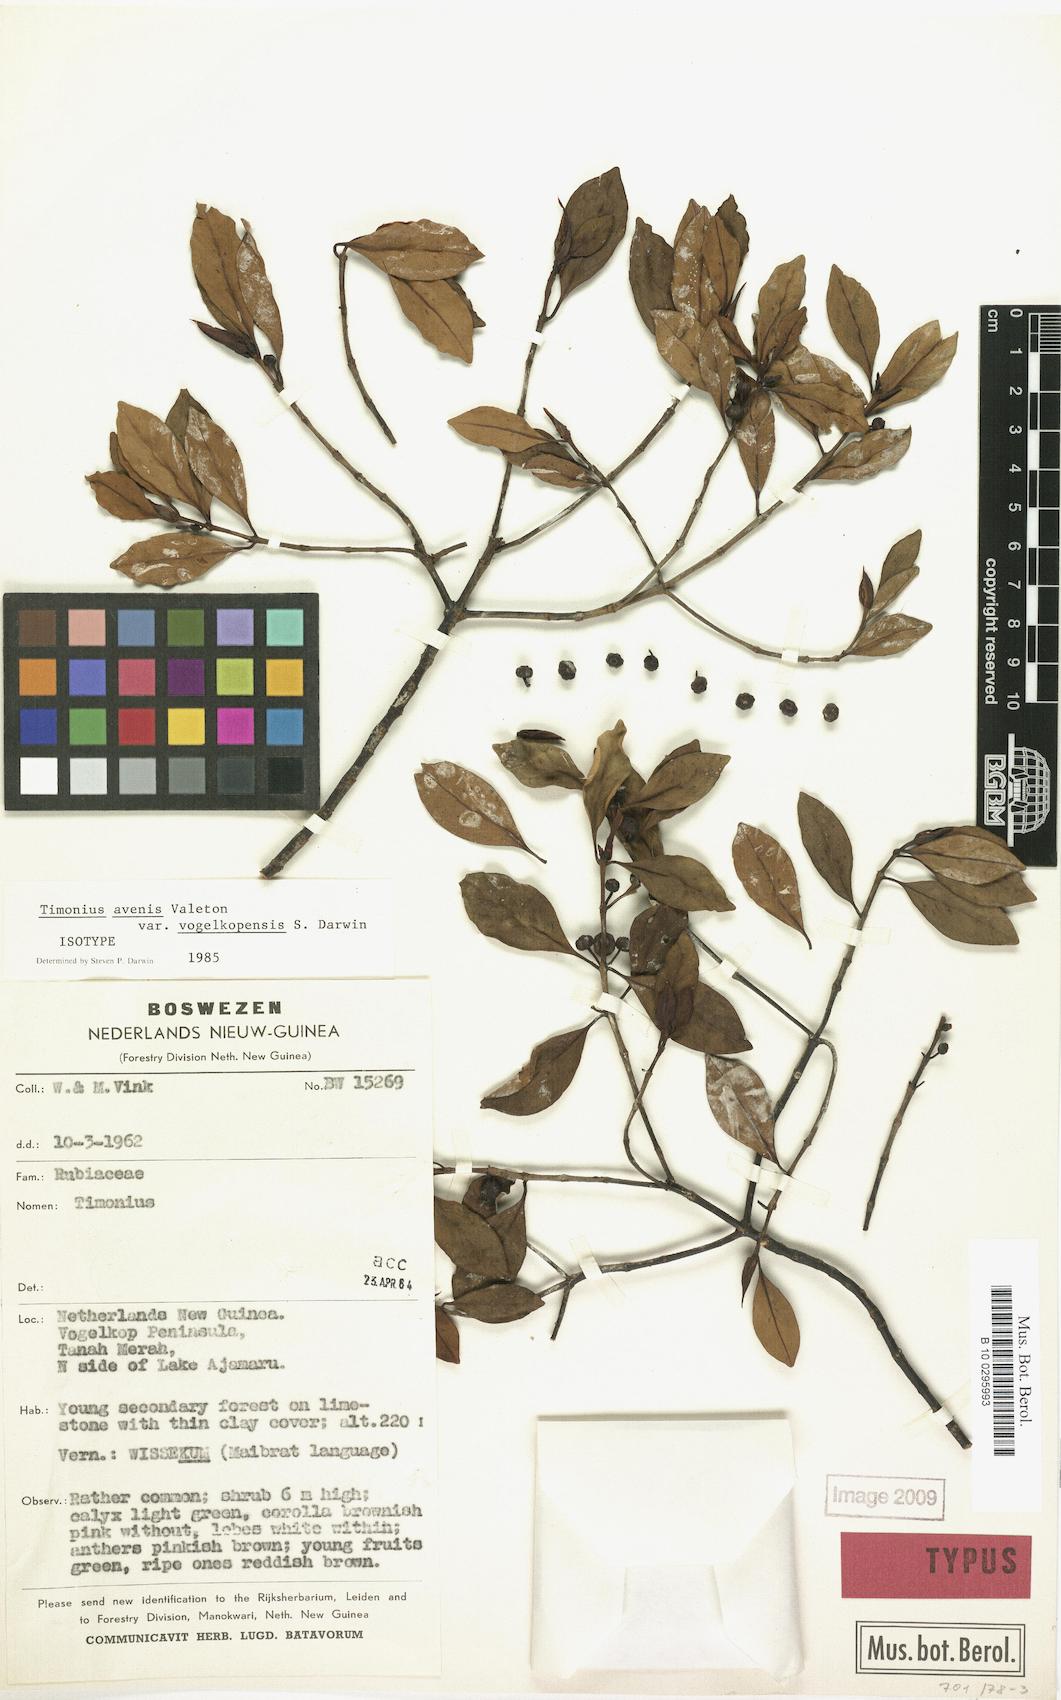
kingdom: Plantae
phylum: Tracheophyta
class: Magnoliopsida
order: Gentianales
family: Rubiaceae
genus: Timonius
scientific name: Timonius avenis
